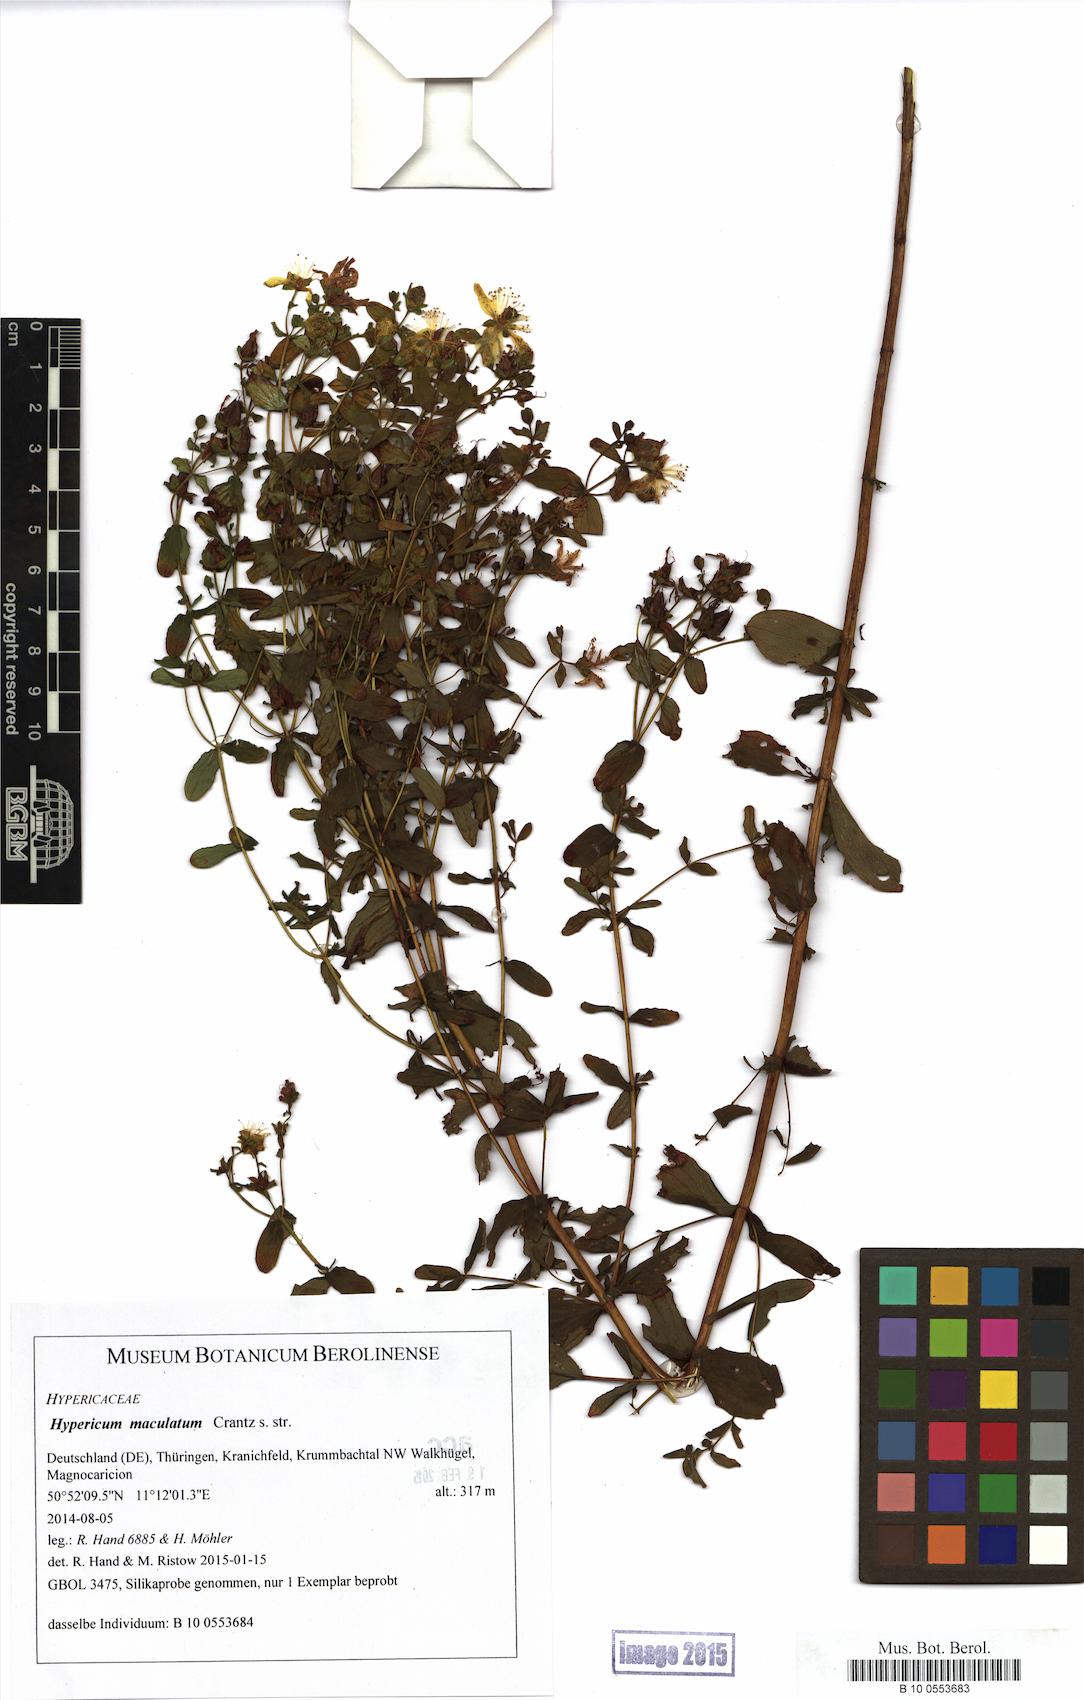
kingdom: Plantae
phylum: Tracheophyta
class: Magnoliopsida
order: Malpighiales
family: Hypericaceae
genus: Hypericum
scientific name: Hypericum maculatum
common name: Imperforate st. john's-wort
